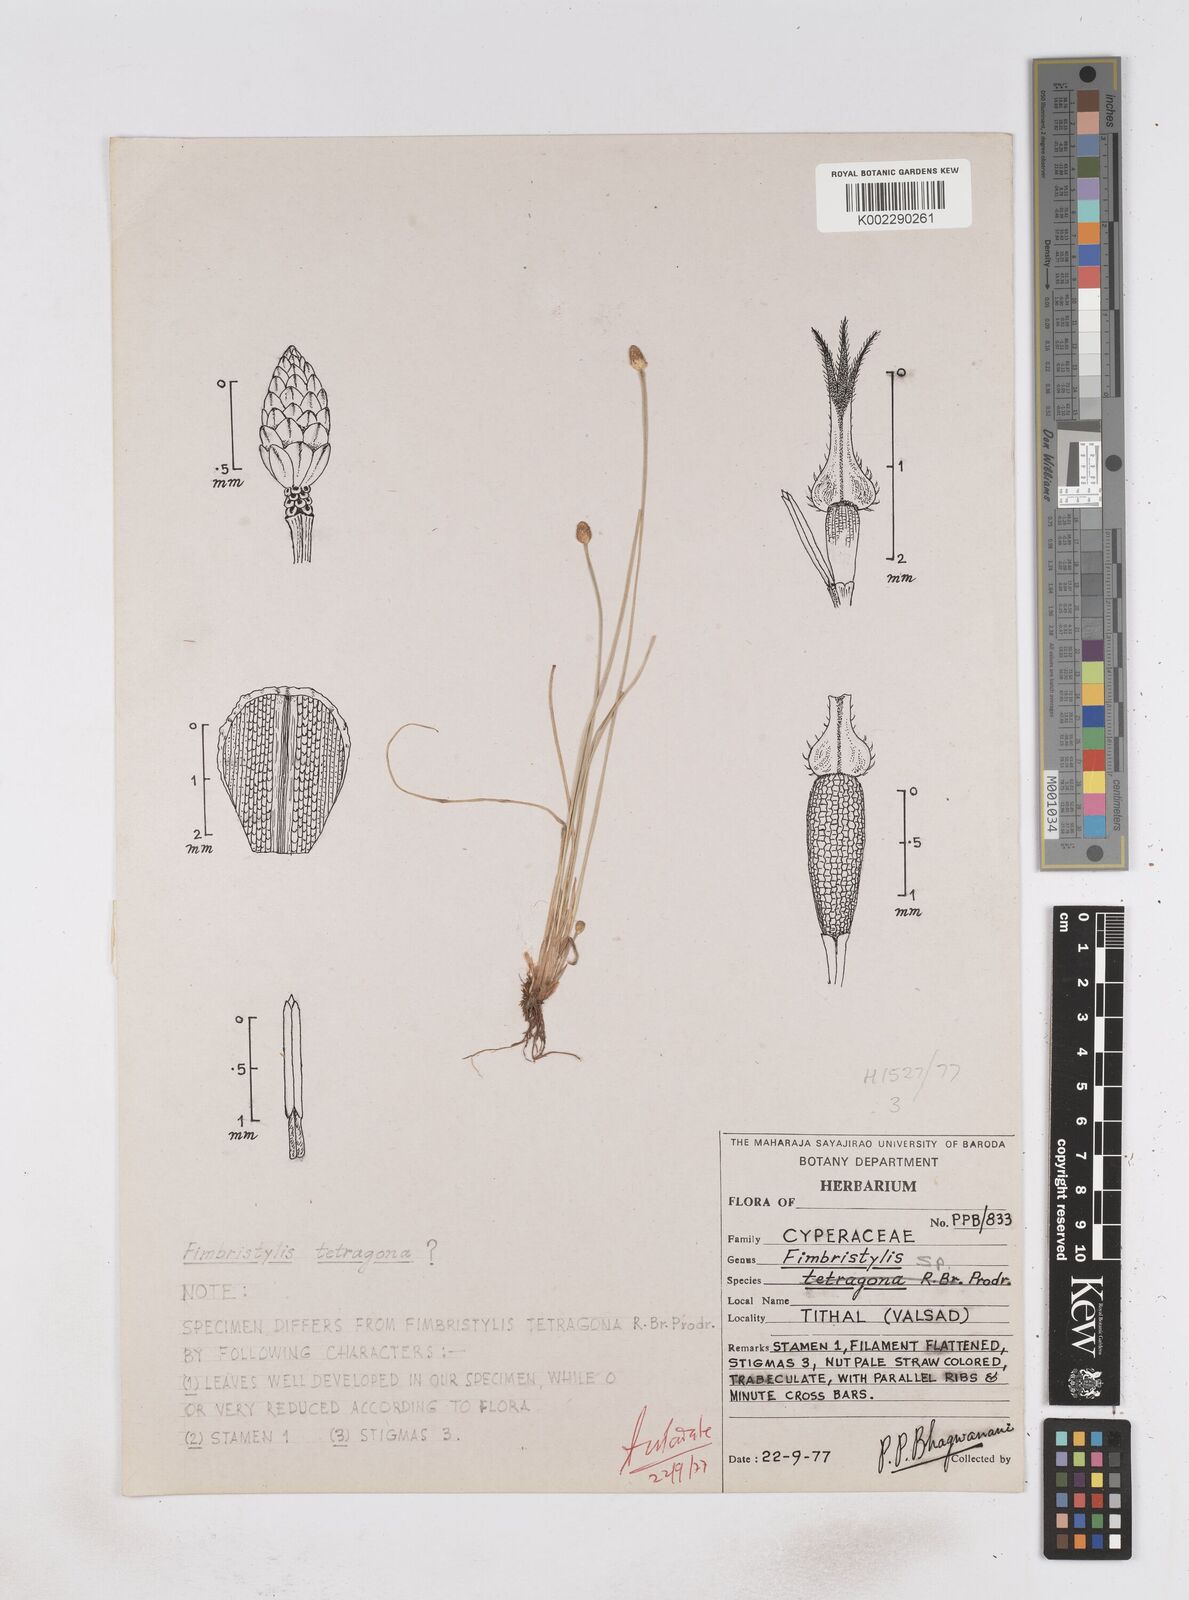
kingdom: Plantae
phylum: Tracheophyta
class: Liliopsida
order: Poales
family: Cyperaceae
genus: Fimbristylis
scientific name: Fimbristylis
